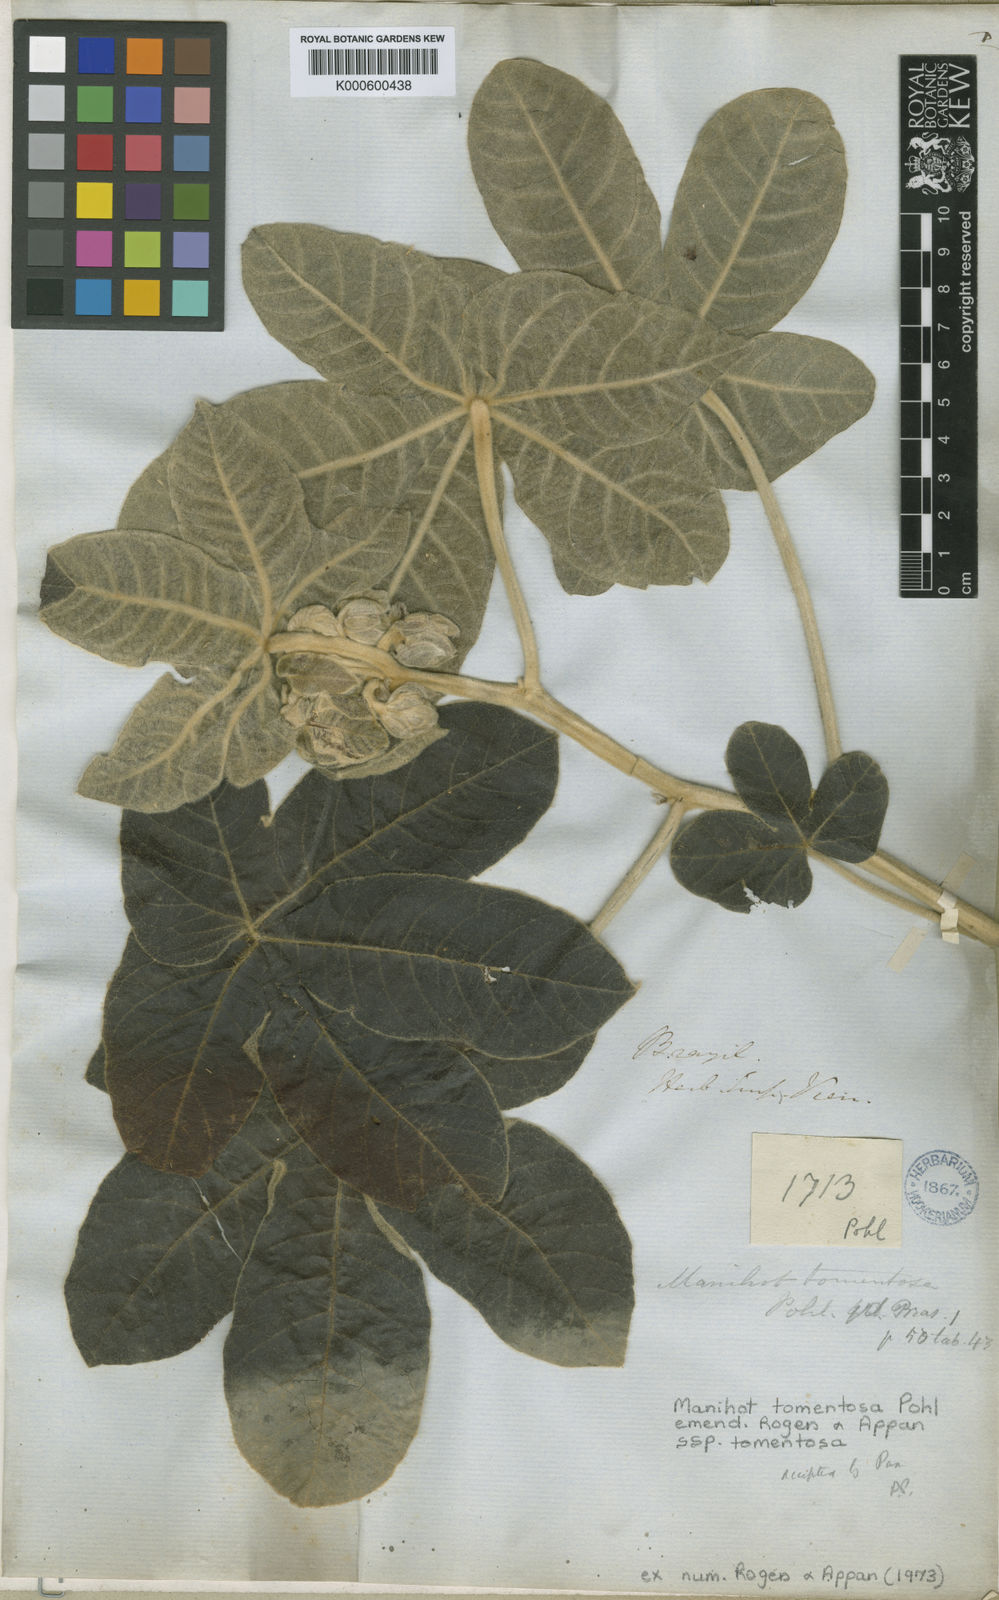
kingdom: Plantae
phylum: Tracheophyta
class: Magnoliopsida
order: Malpighiales
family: Euphorbiaceae
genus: Manihot
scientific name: Manihot tomentosa
